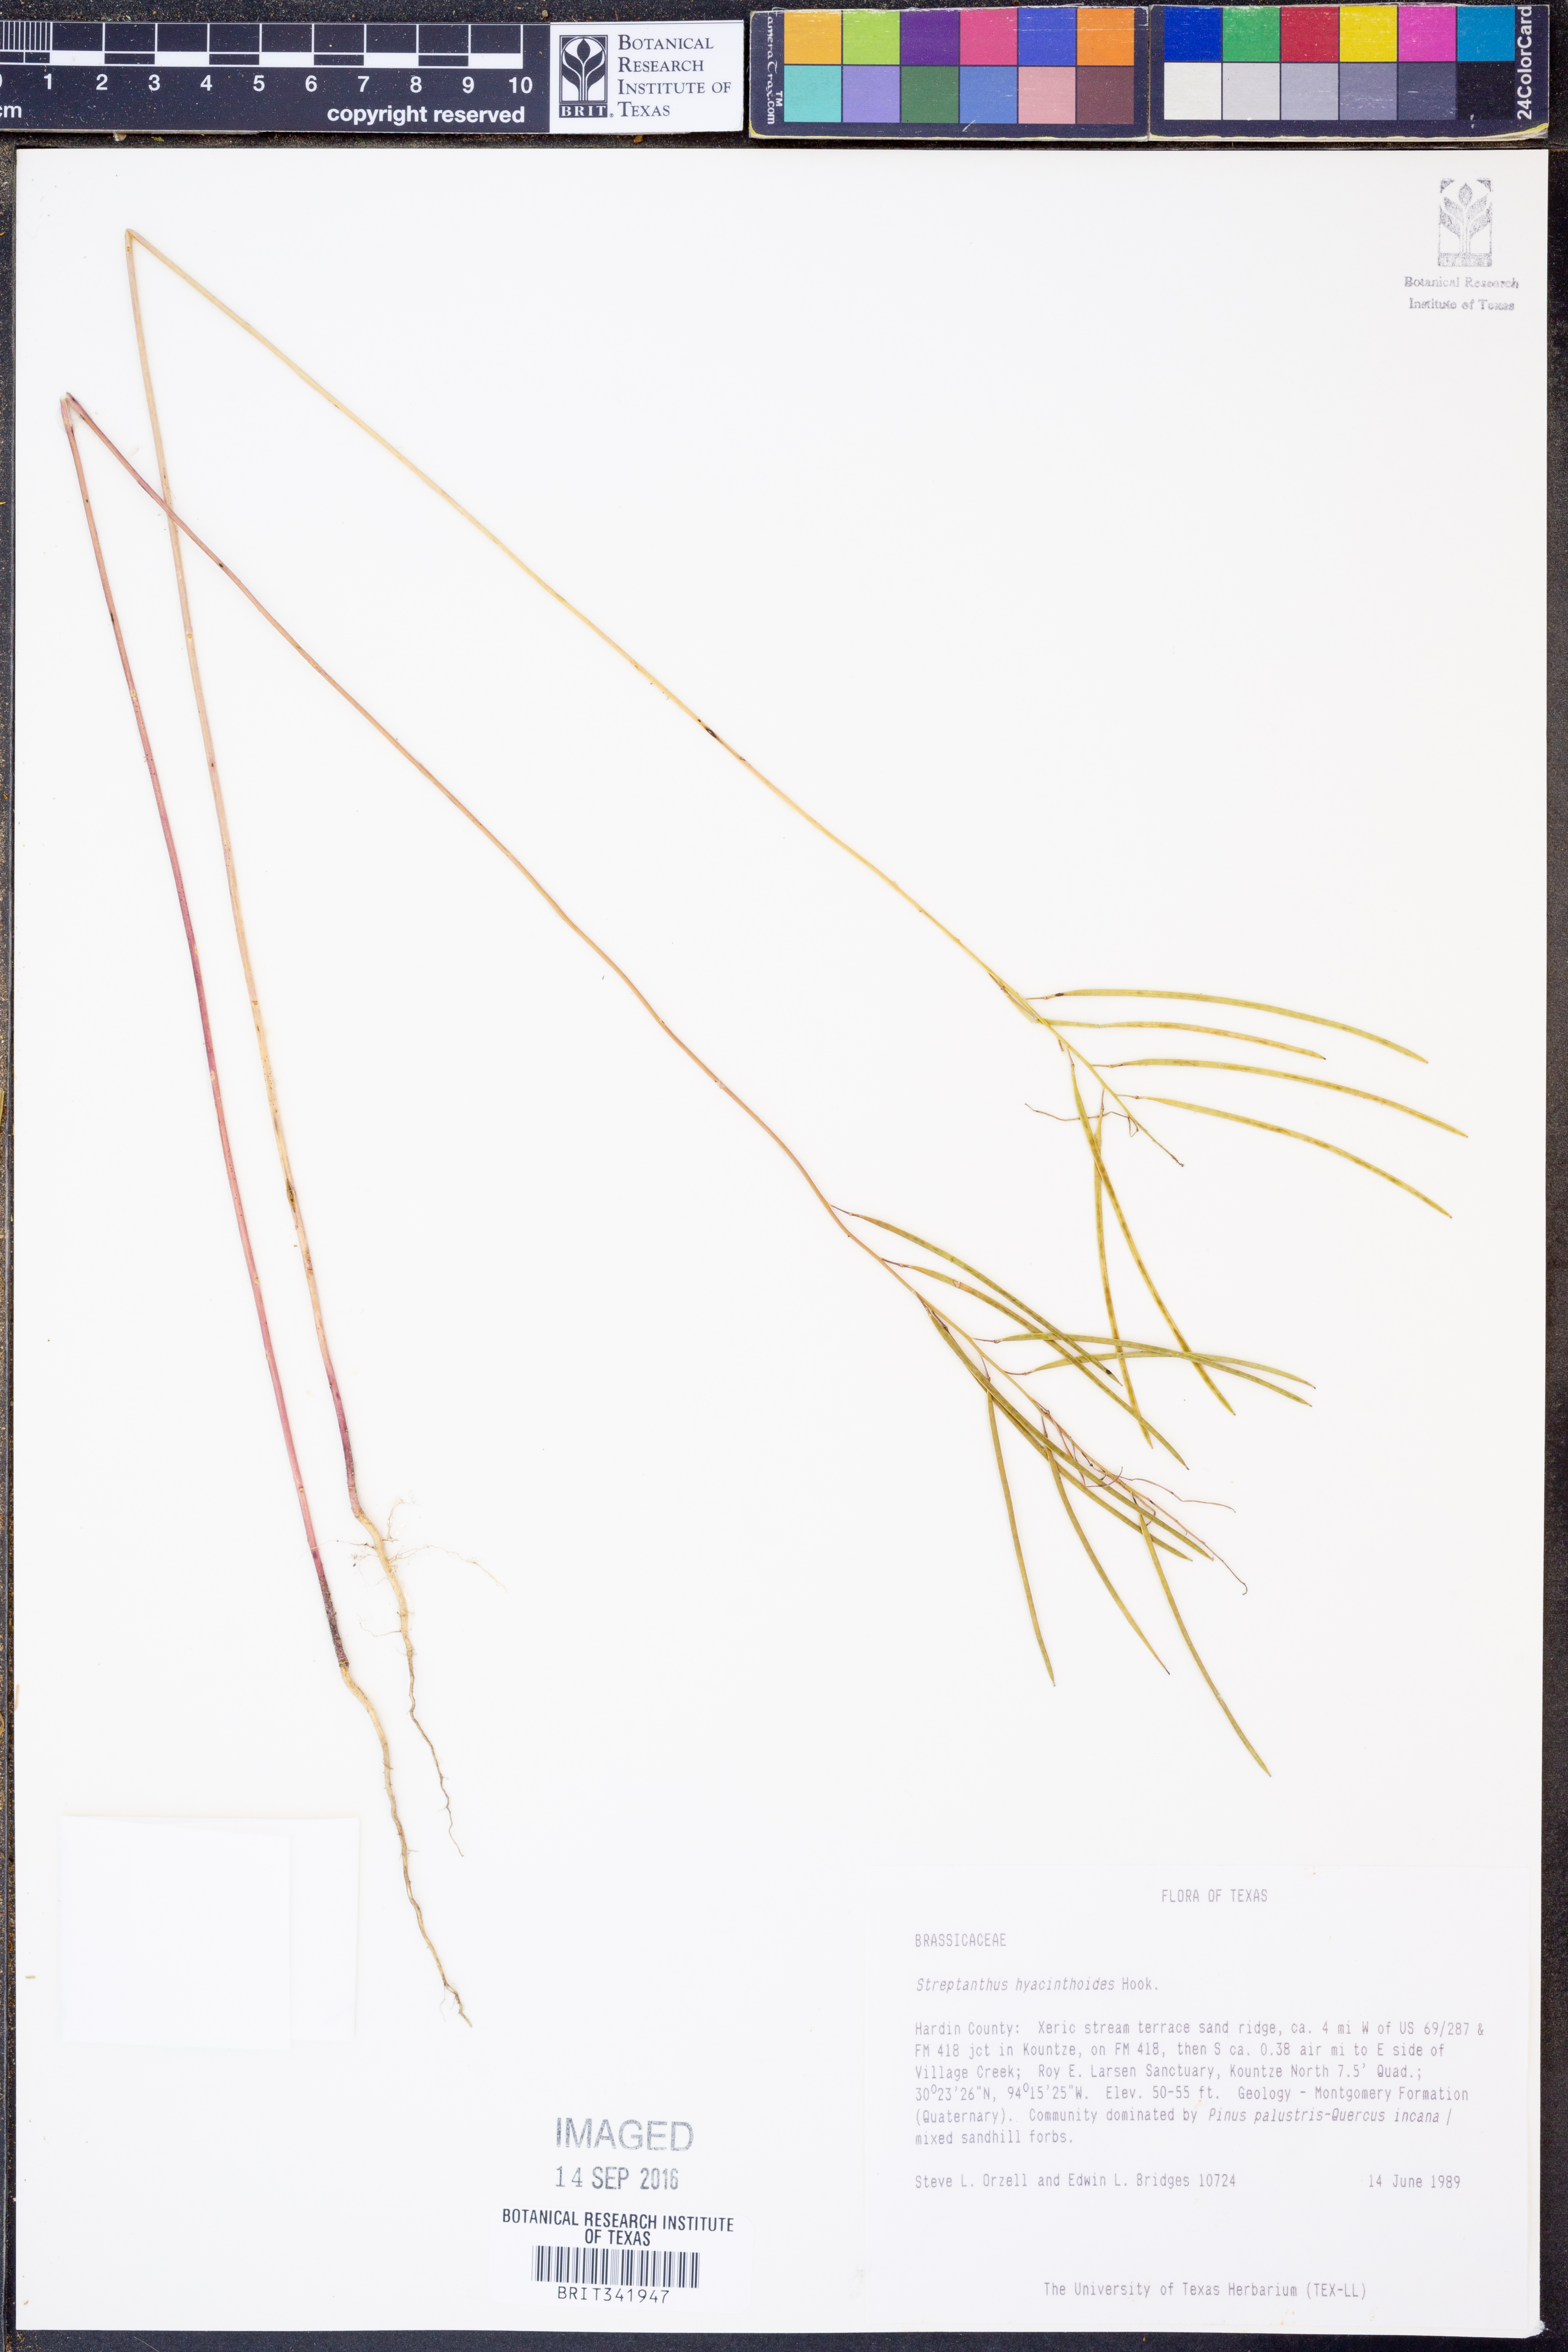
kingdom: Plantae
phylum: Tracheophyta
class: Magnoliopsida
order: Brassicales
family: Brassicaceae
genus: Streptanthus
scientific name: Streptanthus hyacinthoides
